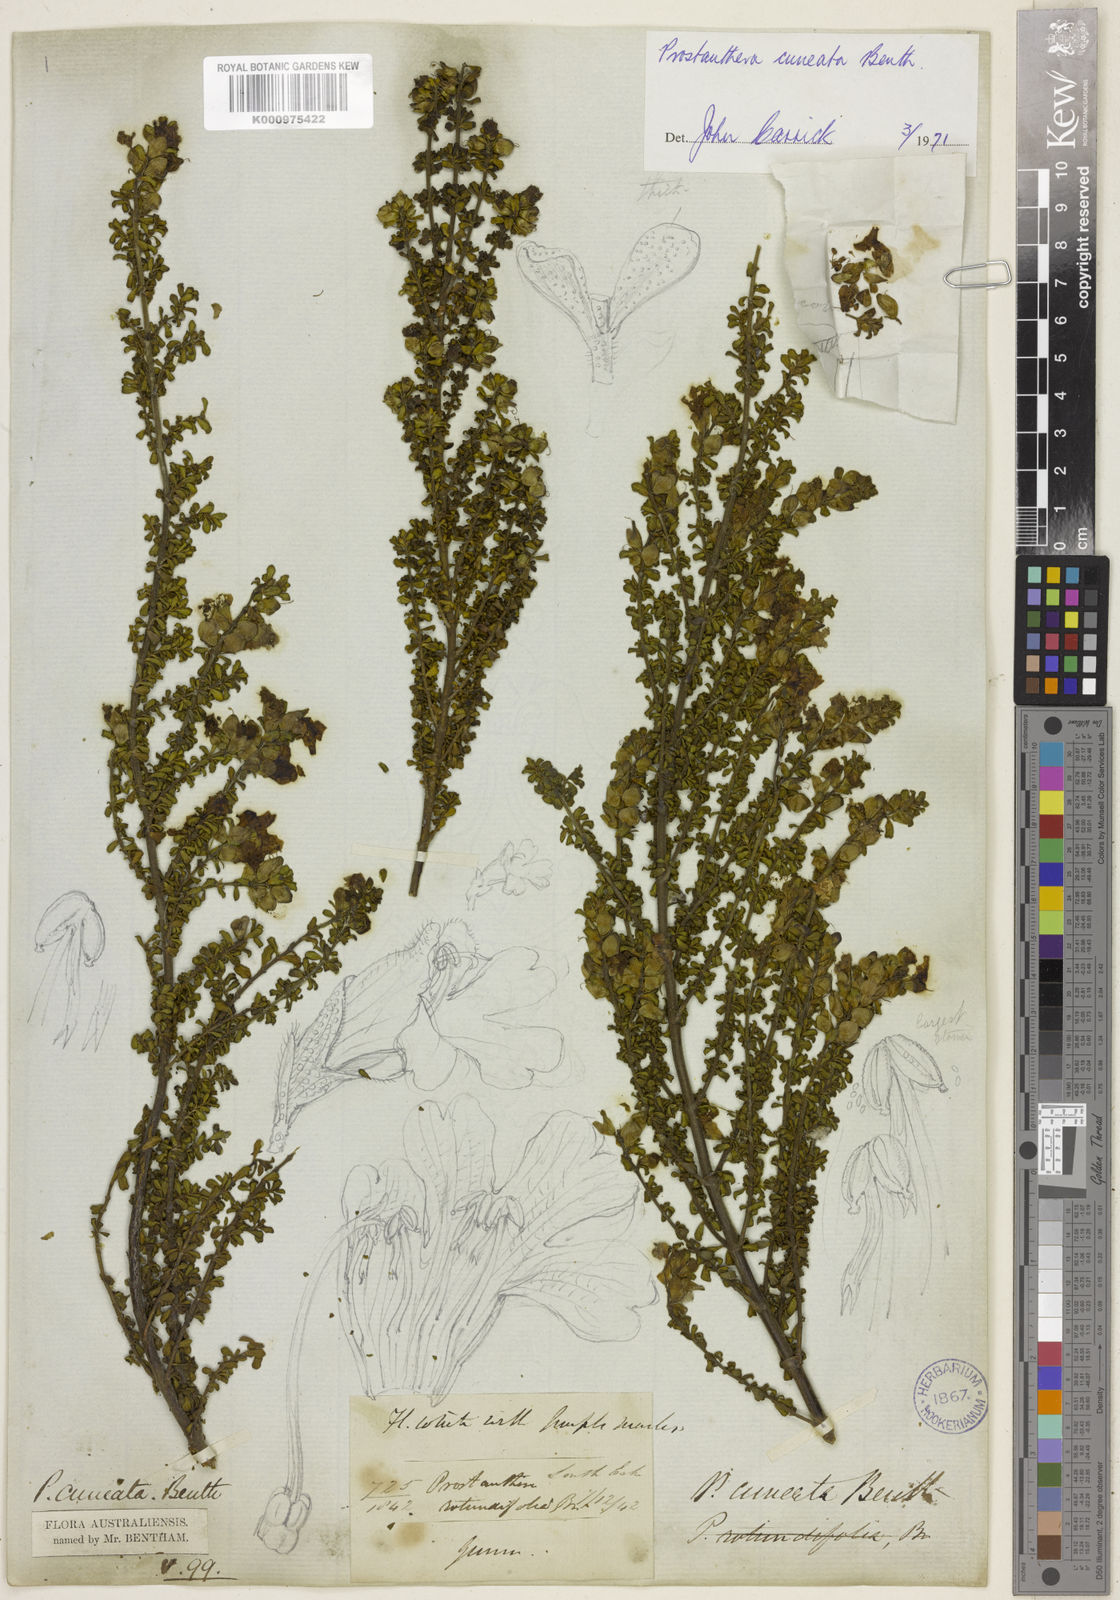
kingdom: Plantae
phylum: Tracheophyta
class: Magnoliopsida
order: Lamiales
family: Lamiaceae
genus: Prostanthera
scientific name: Prostanthera cuneata
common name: Alpine mintbush
